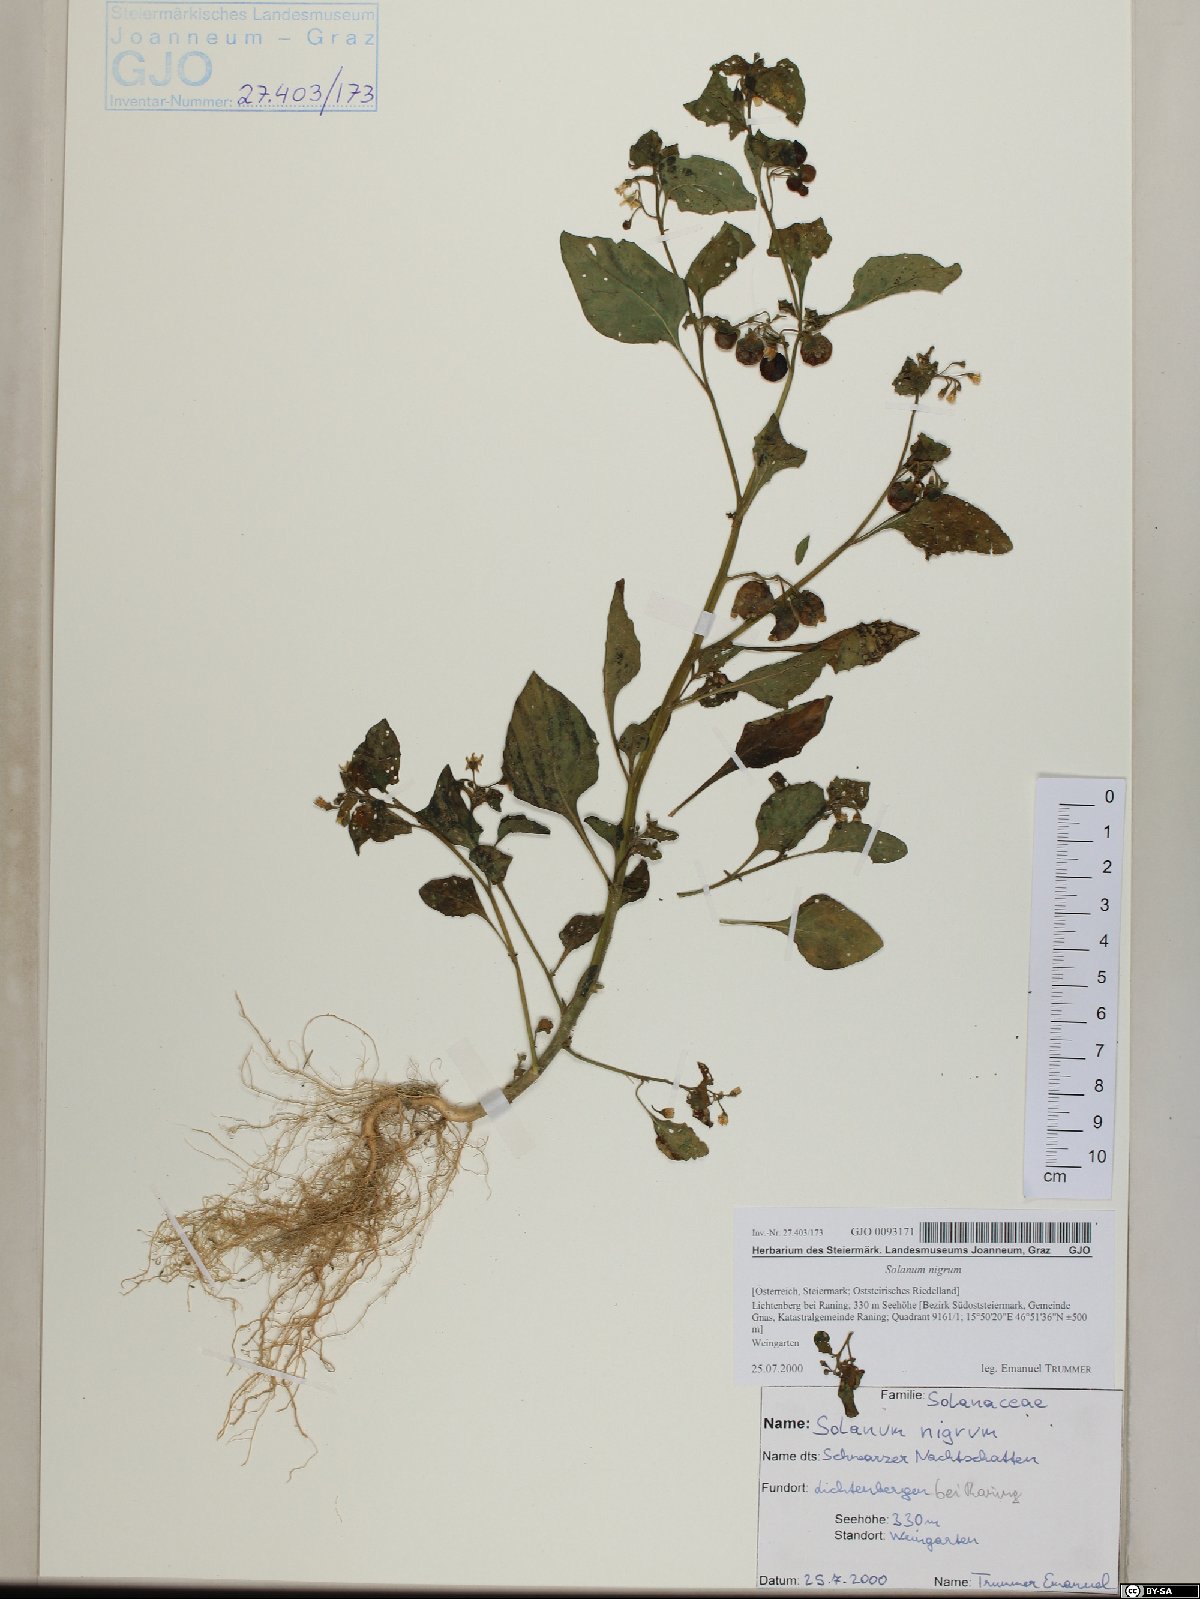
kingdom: Plantae
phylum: Tracheophyta
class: Magnoliopsida
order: Solanales
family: Solanaceae
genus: Solanum
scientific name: Solanum nigrum
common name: Black nightshade
